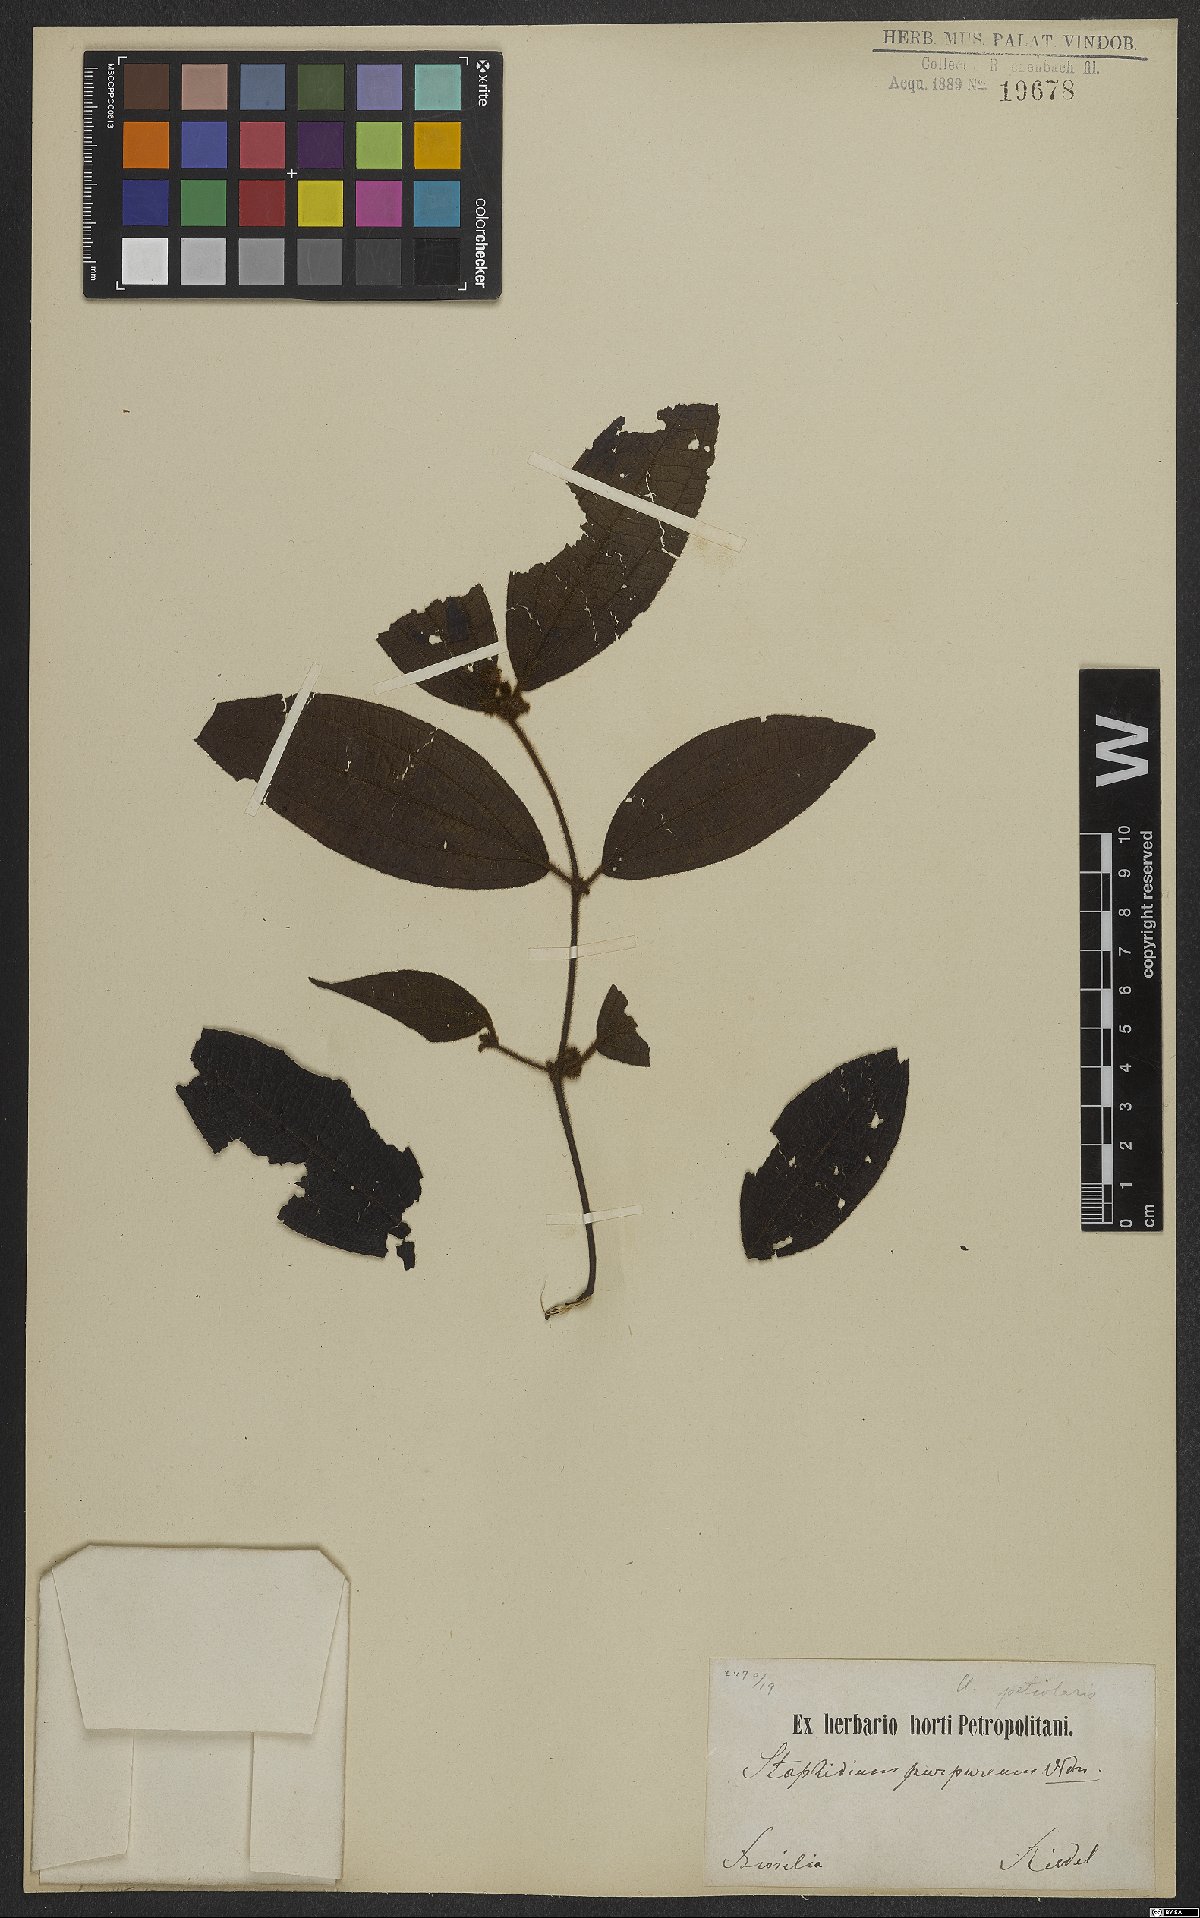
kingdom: Plantae
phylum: Tracheophyta
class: Magnoliopsida
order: Myrtales
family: Melastomataceae
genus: Miconia
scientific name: Miconia
